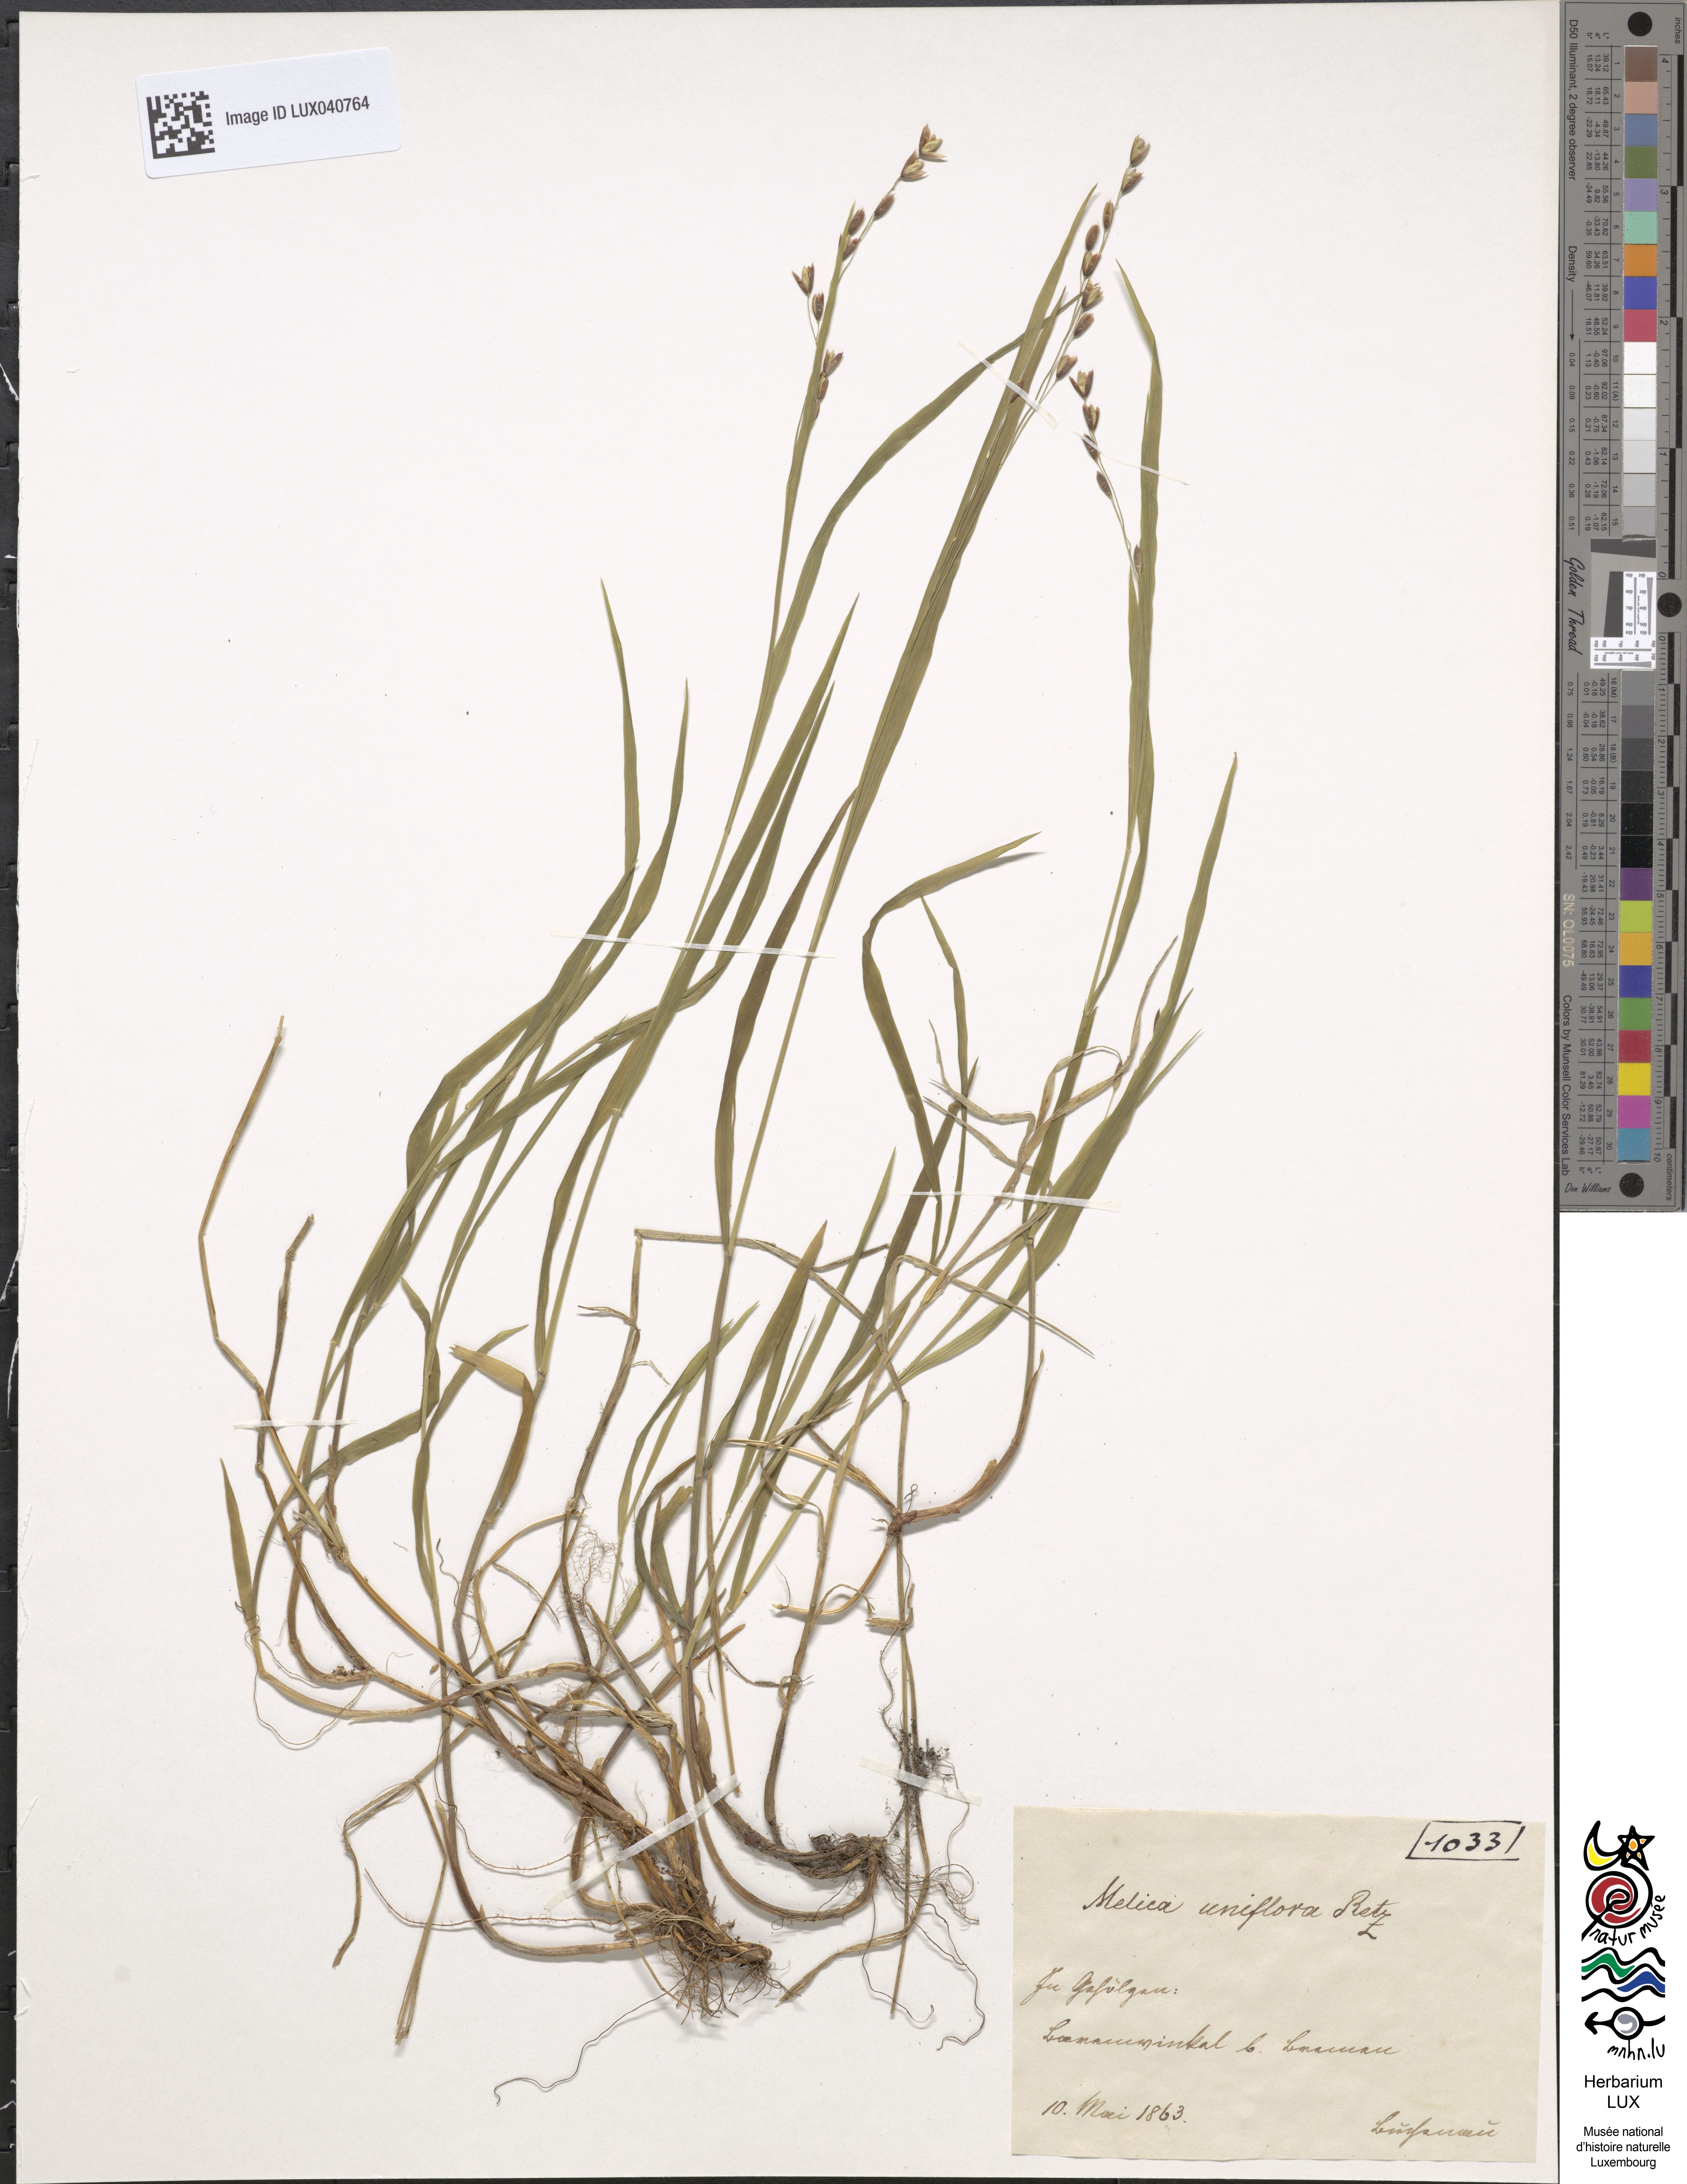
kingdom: Plantae
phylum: Tracheophyta
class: Liliopsida
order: Poales
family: Poaceae
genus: Melica
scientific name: Melica uniflora
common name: Wood melick
